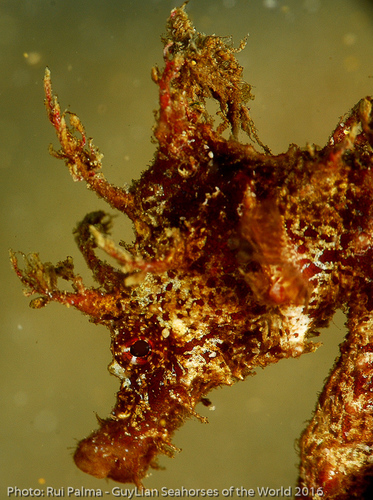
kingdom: Animalia
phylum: Chordata
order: Syngnathiformes
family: Syngnathidae
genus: Hippocampus
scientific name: Hippocampus hippocampus
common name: Short-snouted seahorse
